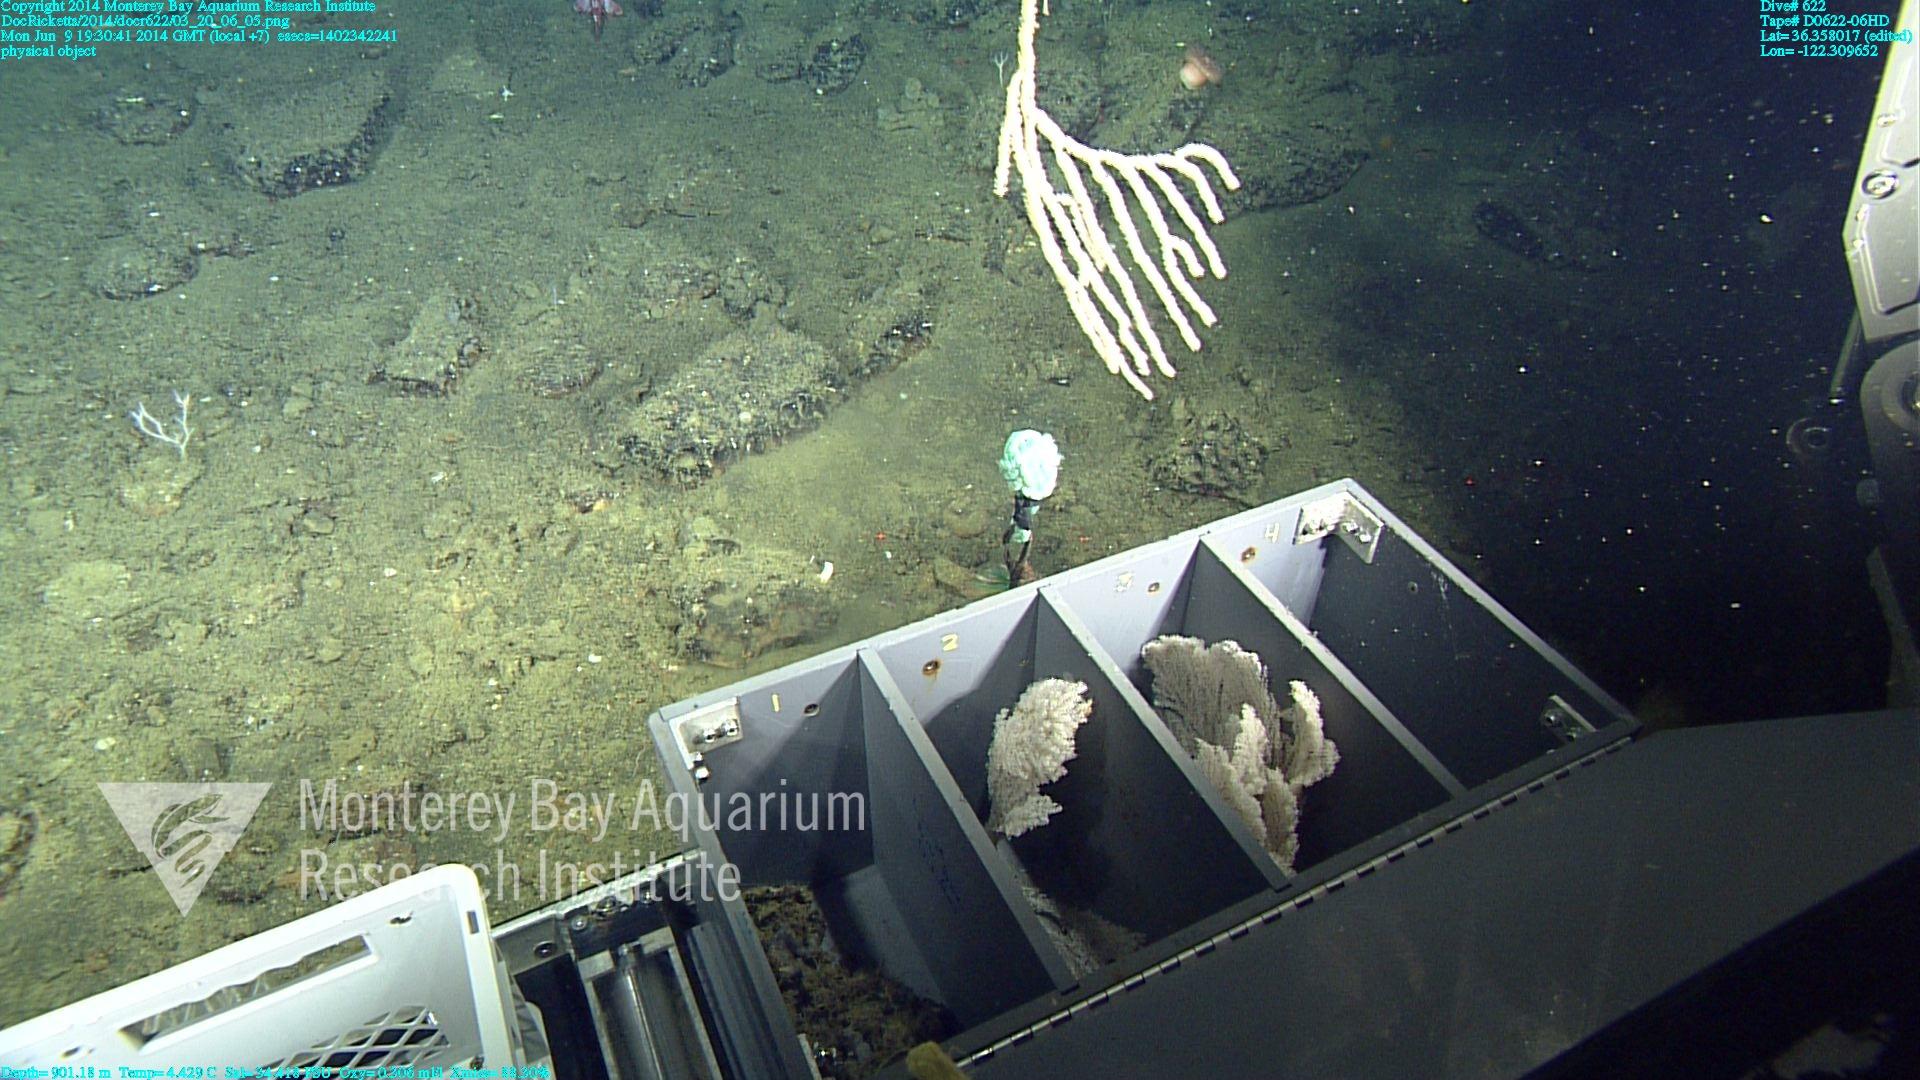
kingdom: Animalia
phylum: Cnidaria
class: Anthozoa
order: Scleralcyonacea
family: Keratoisididae
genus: Isidella
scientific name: Isidella tentaculum
